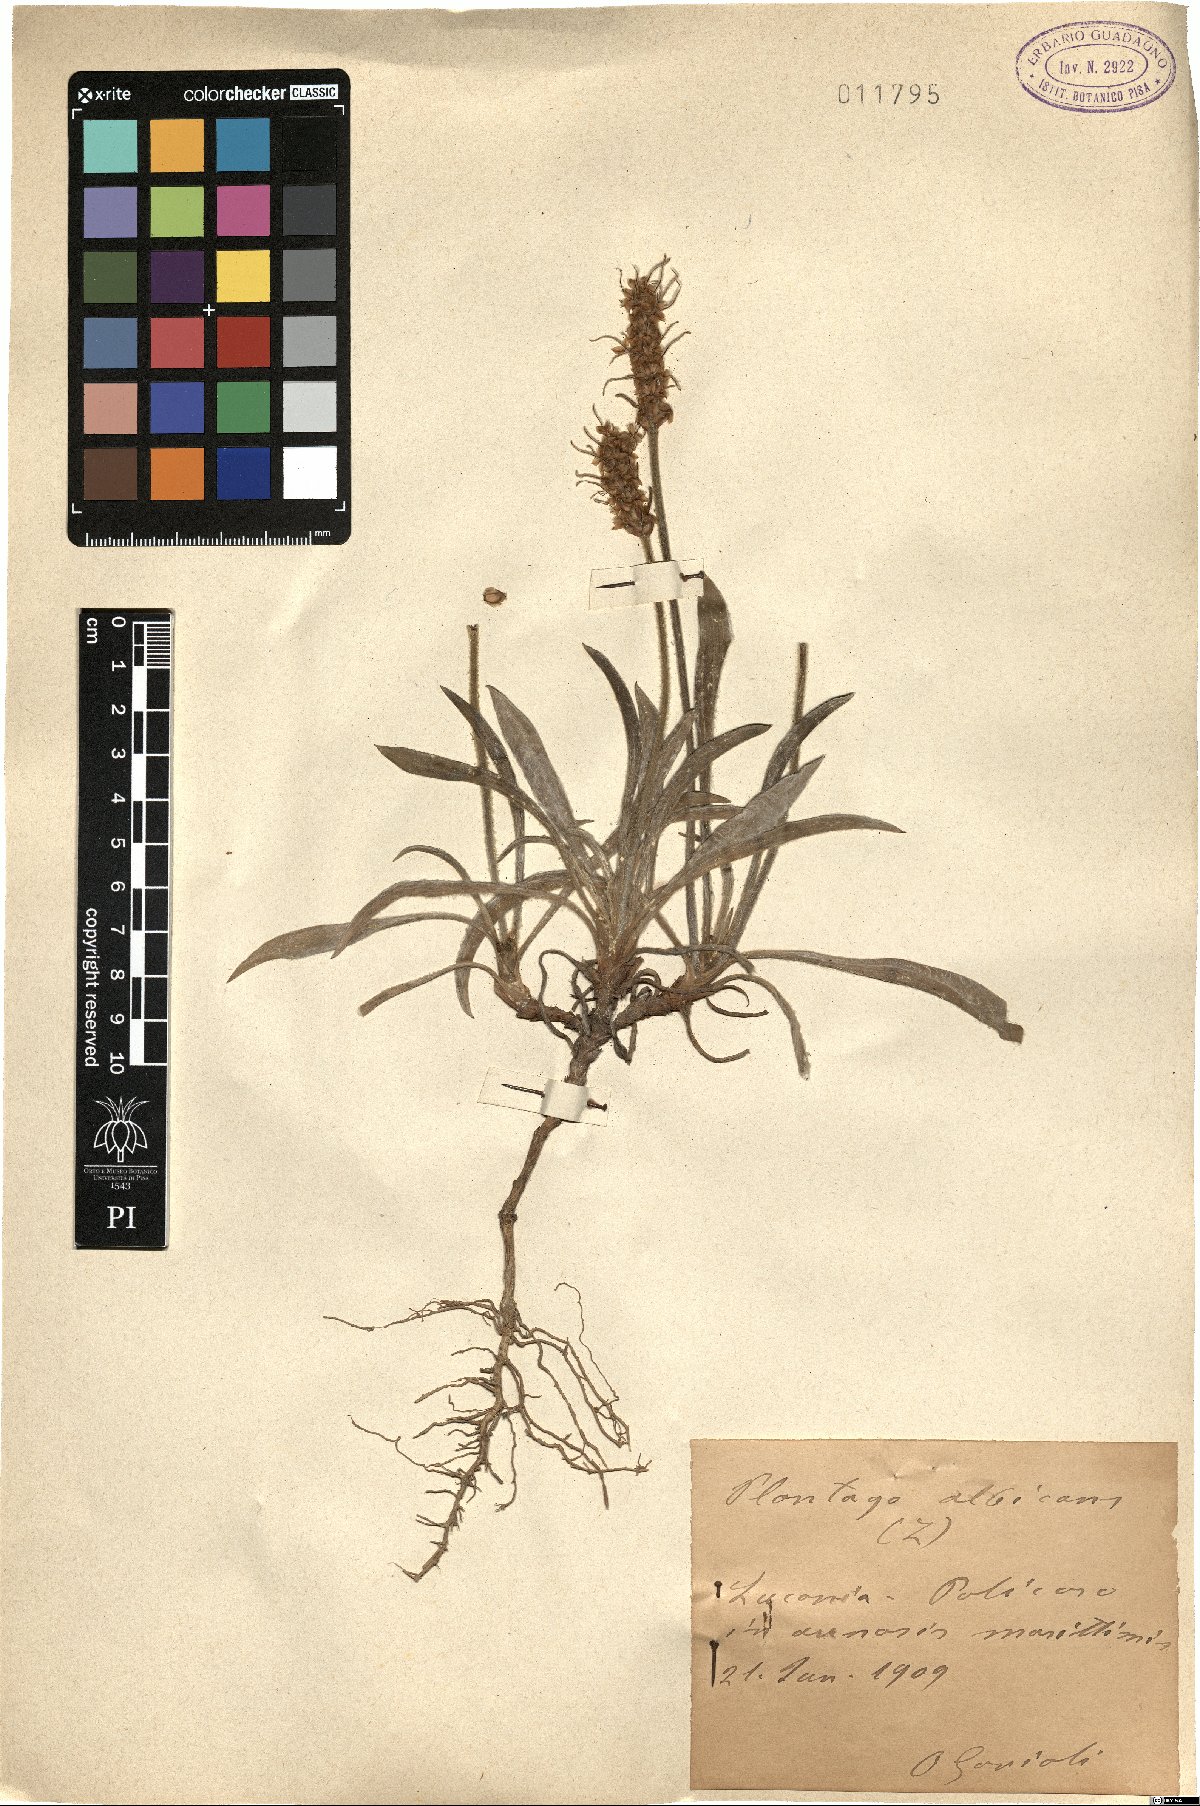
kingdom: Plantae
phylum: Tracheophyta
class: Magnoliopsida
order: Lamiales
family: Plantaginaceae
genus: Plantago
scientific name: Plantago albicans
